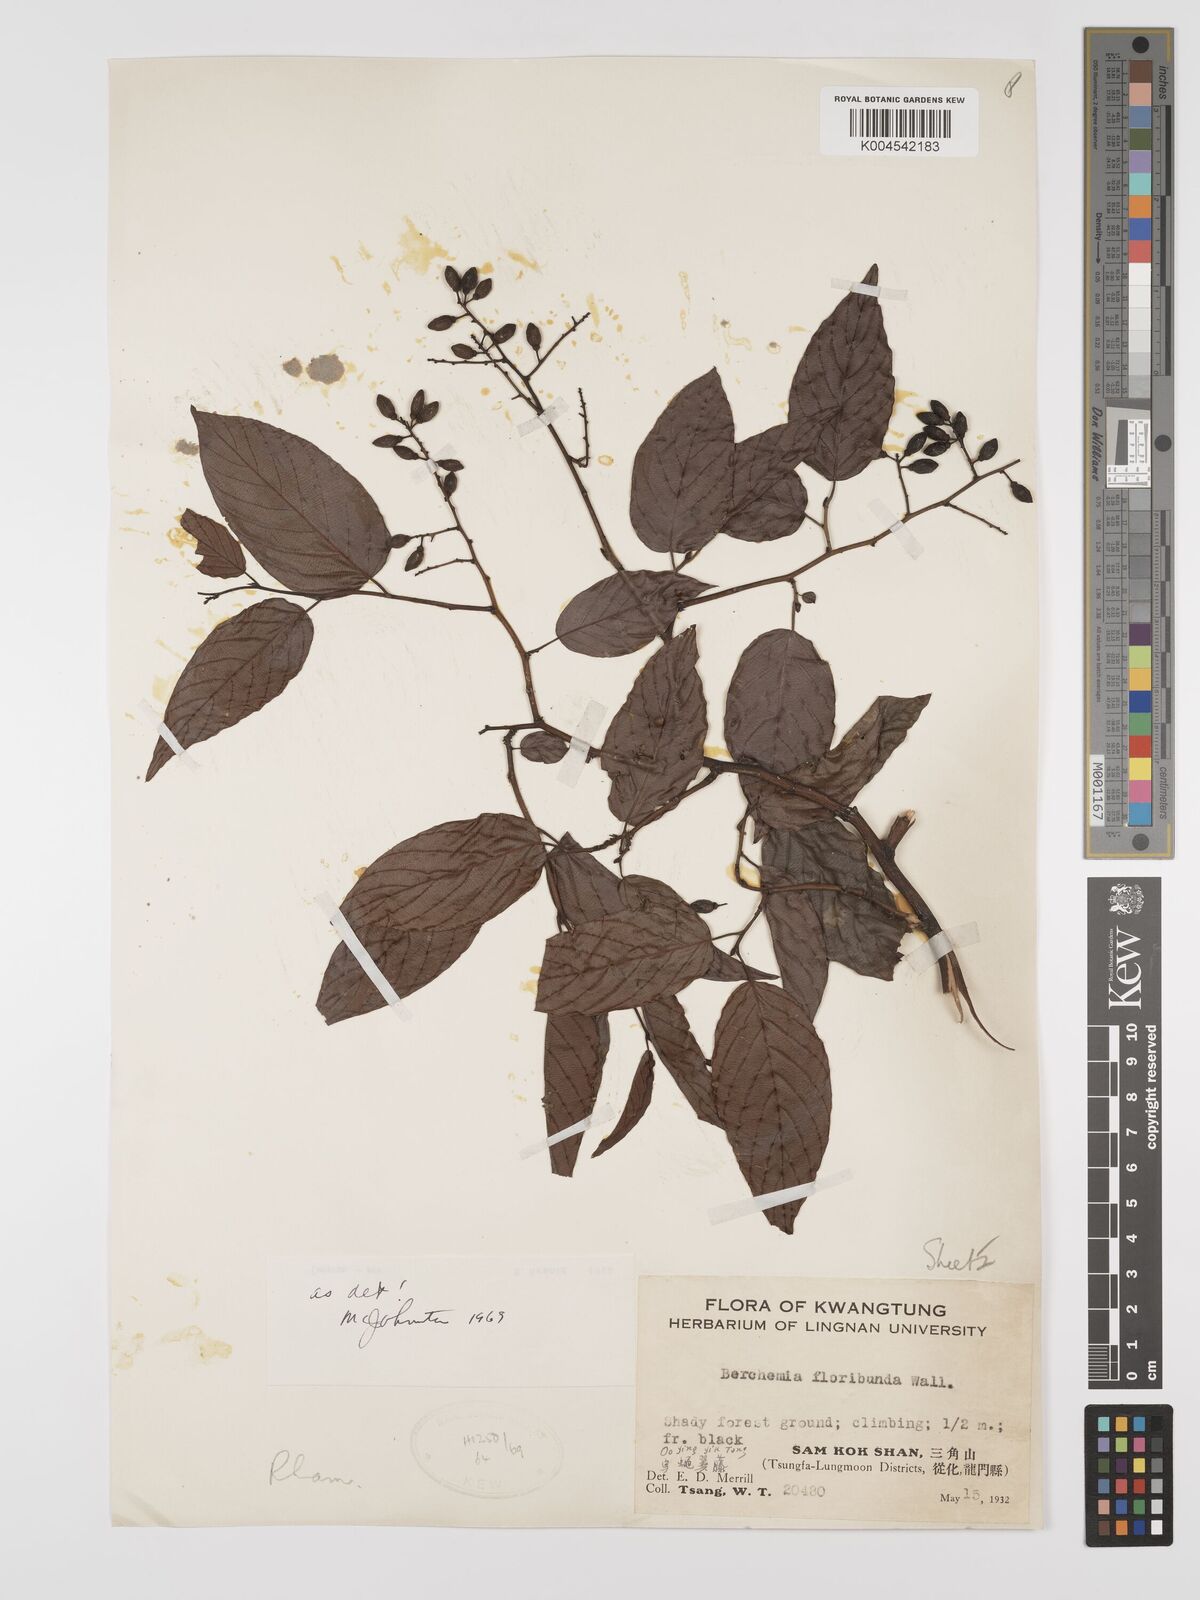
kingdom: Plantae
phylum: Tracheophyta
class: Magnoliopsida
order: Rosales
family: Rhamnaceae
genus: Berchemia
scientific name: Berchemia floribunda
